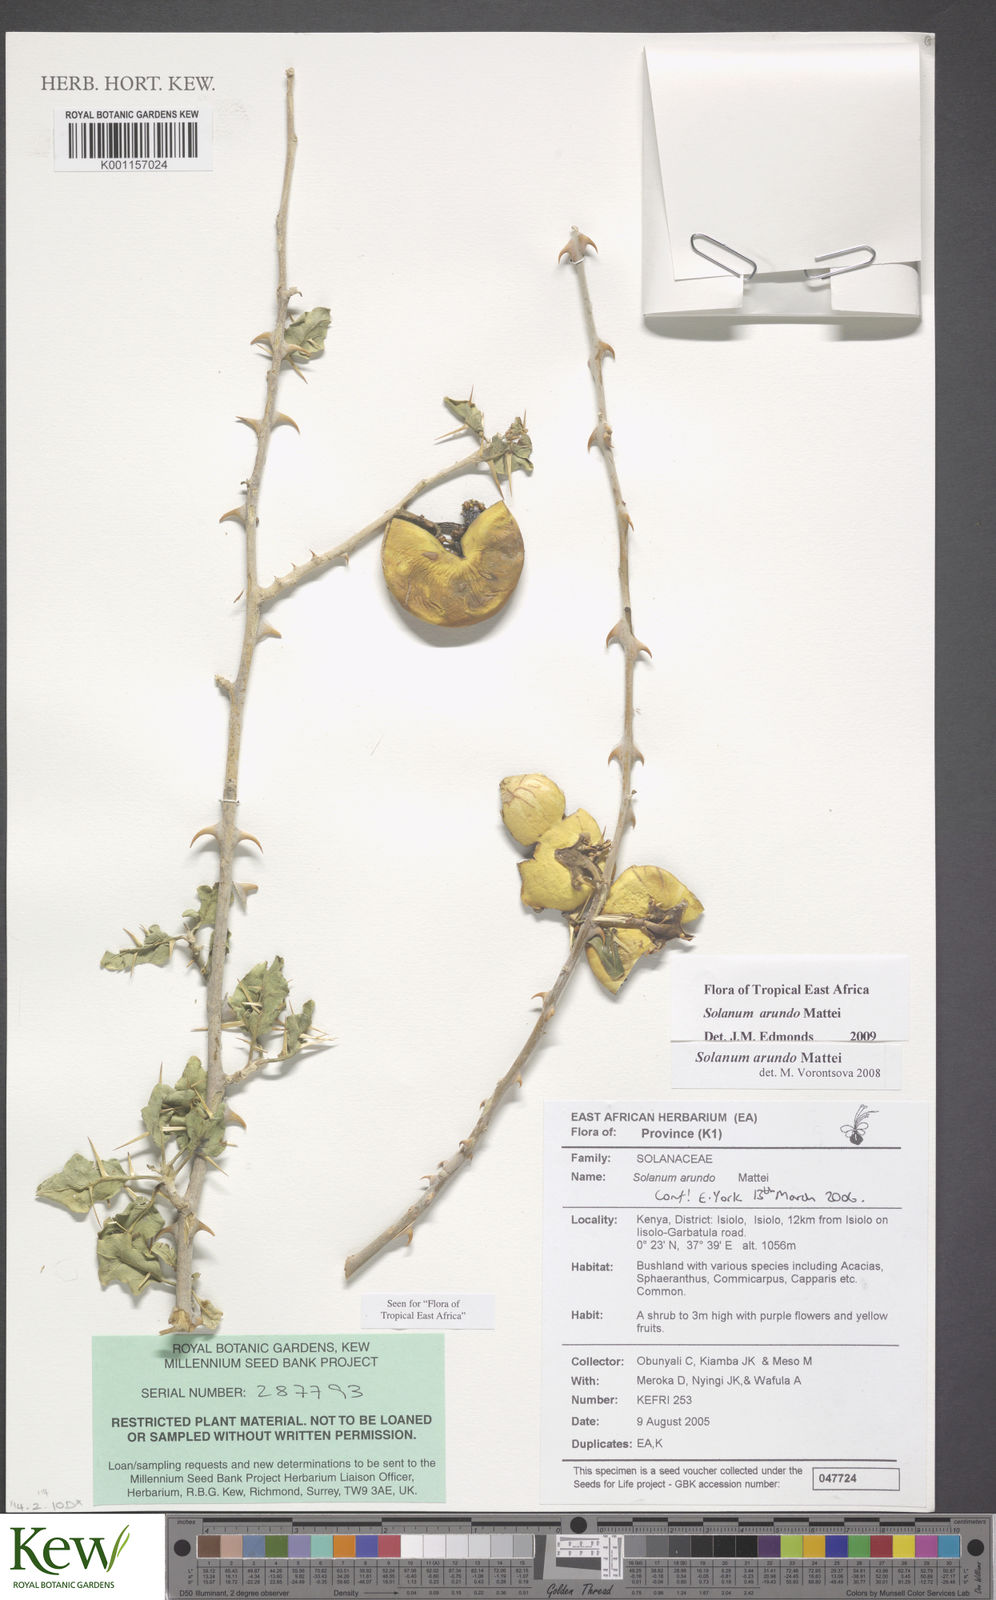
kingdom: Plantae
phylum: Tracheophyta
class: Magnoliopsida
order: Solanales
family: Solanaceae
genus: Solanum
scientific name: Solanum arundo
